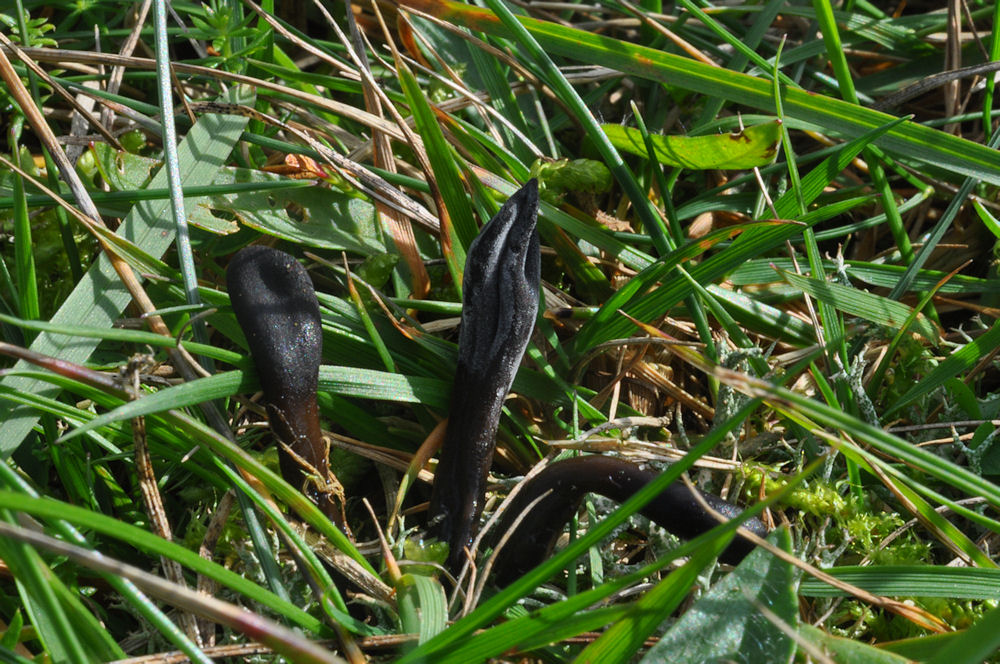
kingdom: Fungi
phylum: Ascomycota
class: Geoglossomycetes
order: Geoglossales
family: Geoglossaceae
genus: Glutinoglossum
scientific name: Glutinoglossum glutinosum
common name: slimet jordtunge
